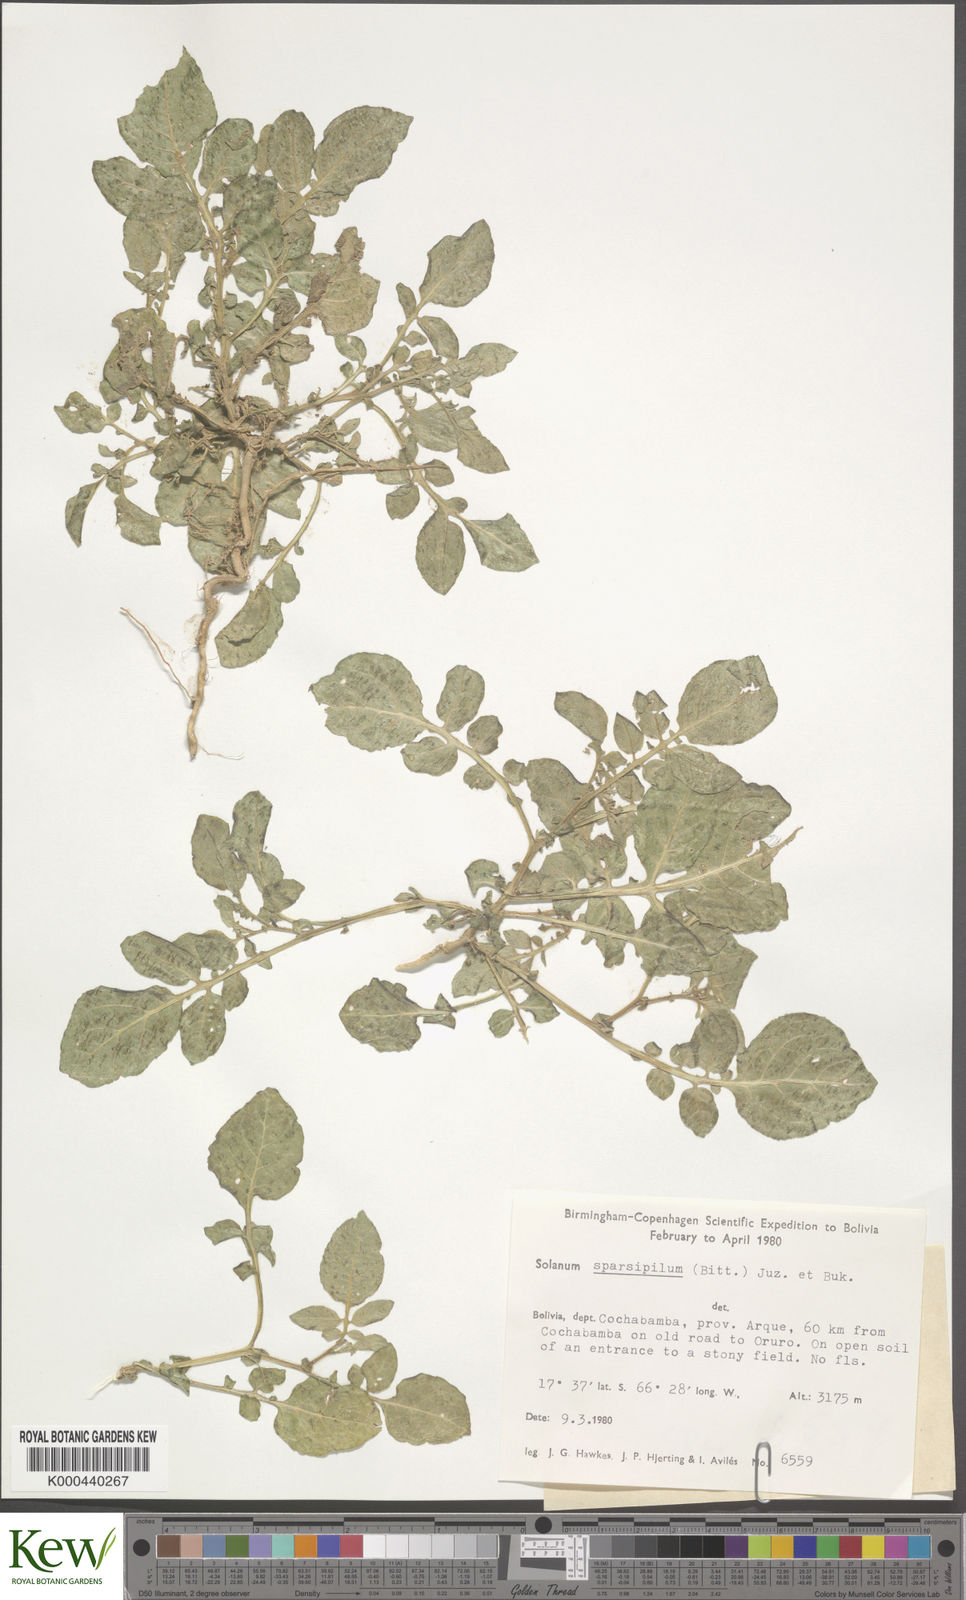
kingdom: Plantae
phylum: Tracheophyta
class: Magnoliopsida
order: Solanales
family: Solanaceae
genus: Solanum
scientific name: Solanum brevicaule
